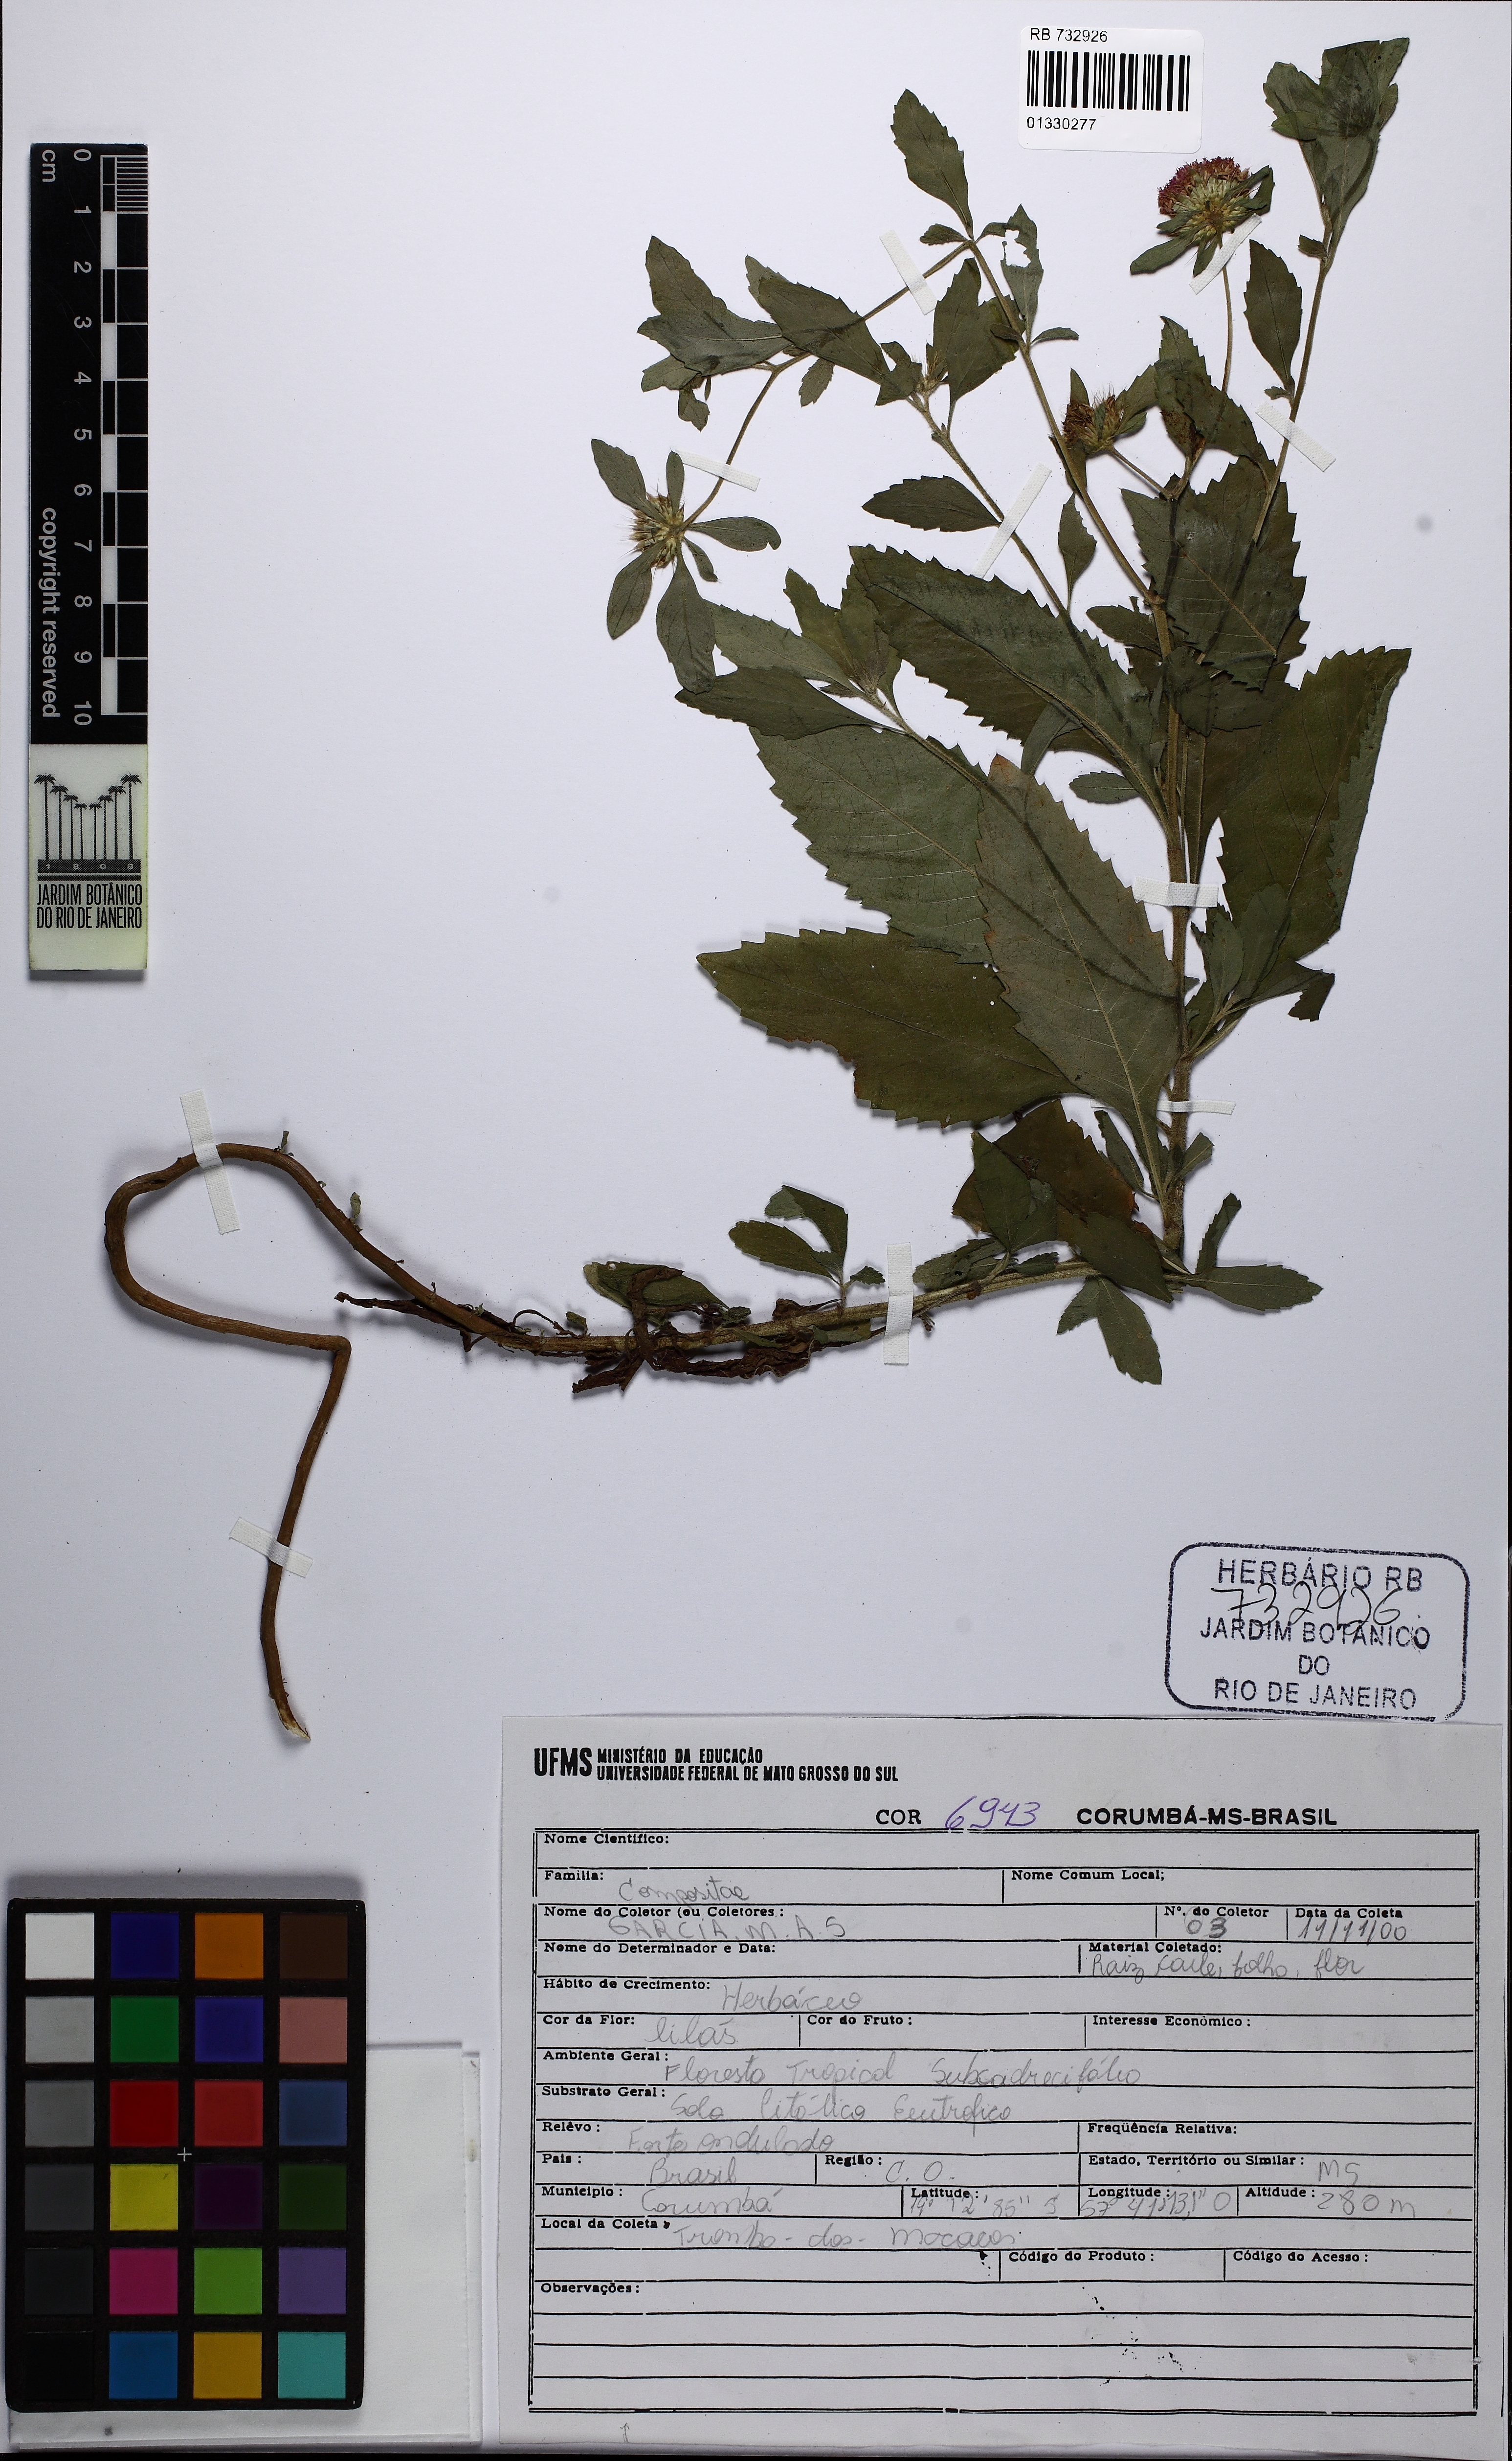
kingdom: Plantae
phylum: Tracheophyta
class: Magnoliopsida
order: Asterales
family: Asteraceae
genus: Centratherum
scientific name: Centratherum punctatum
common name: Larkdaisy
